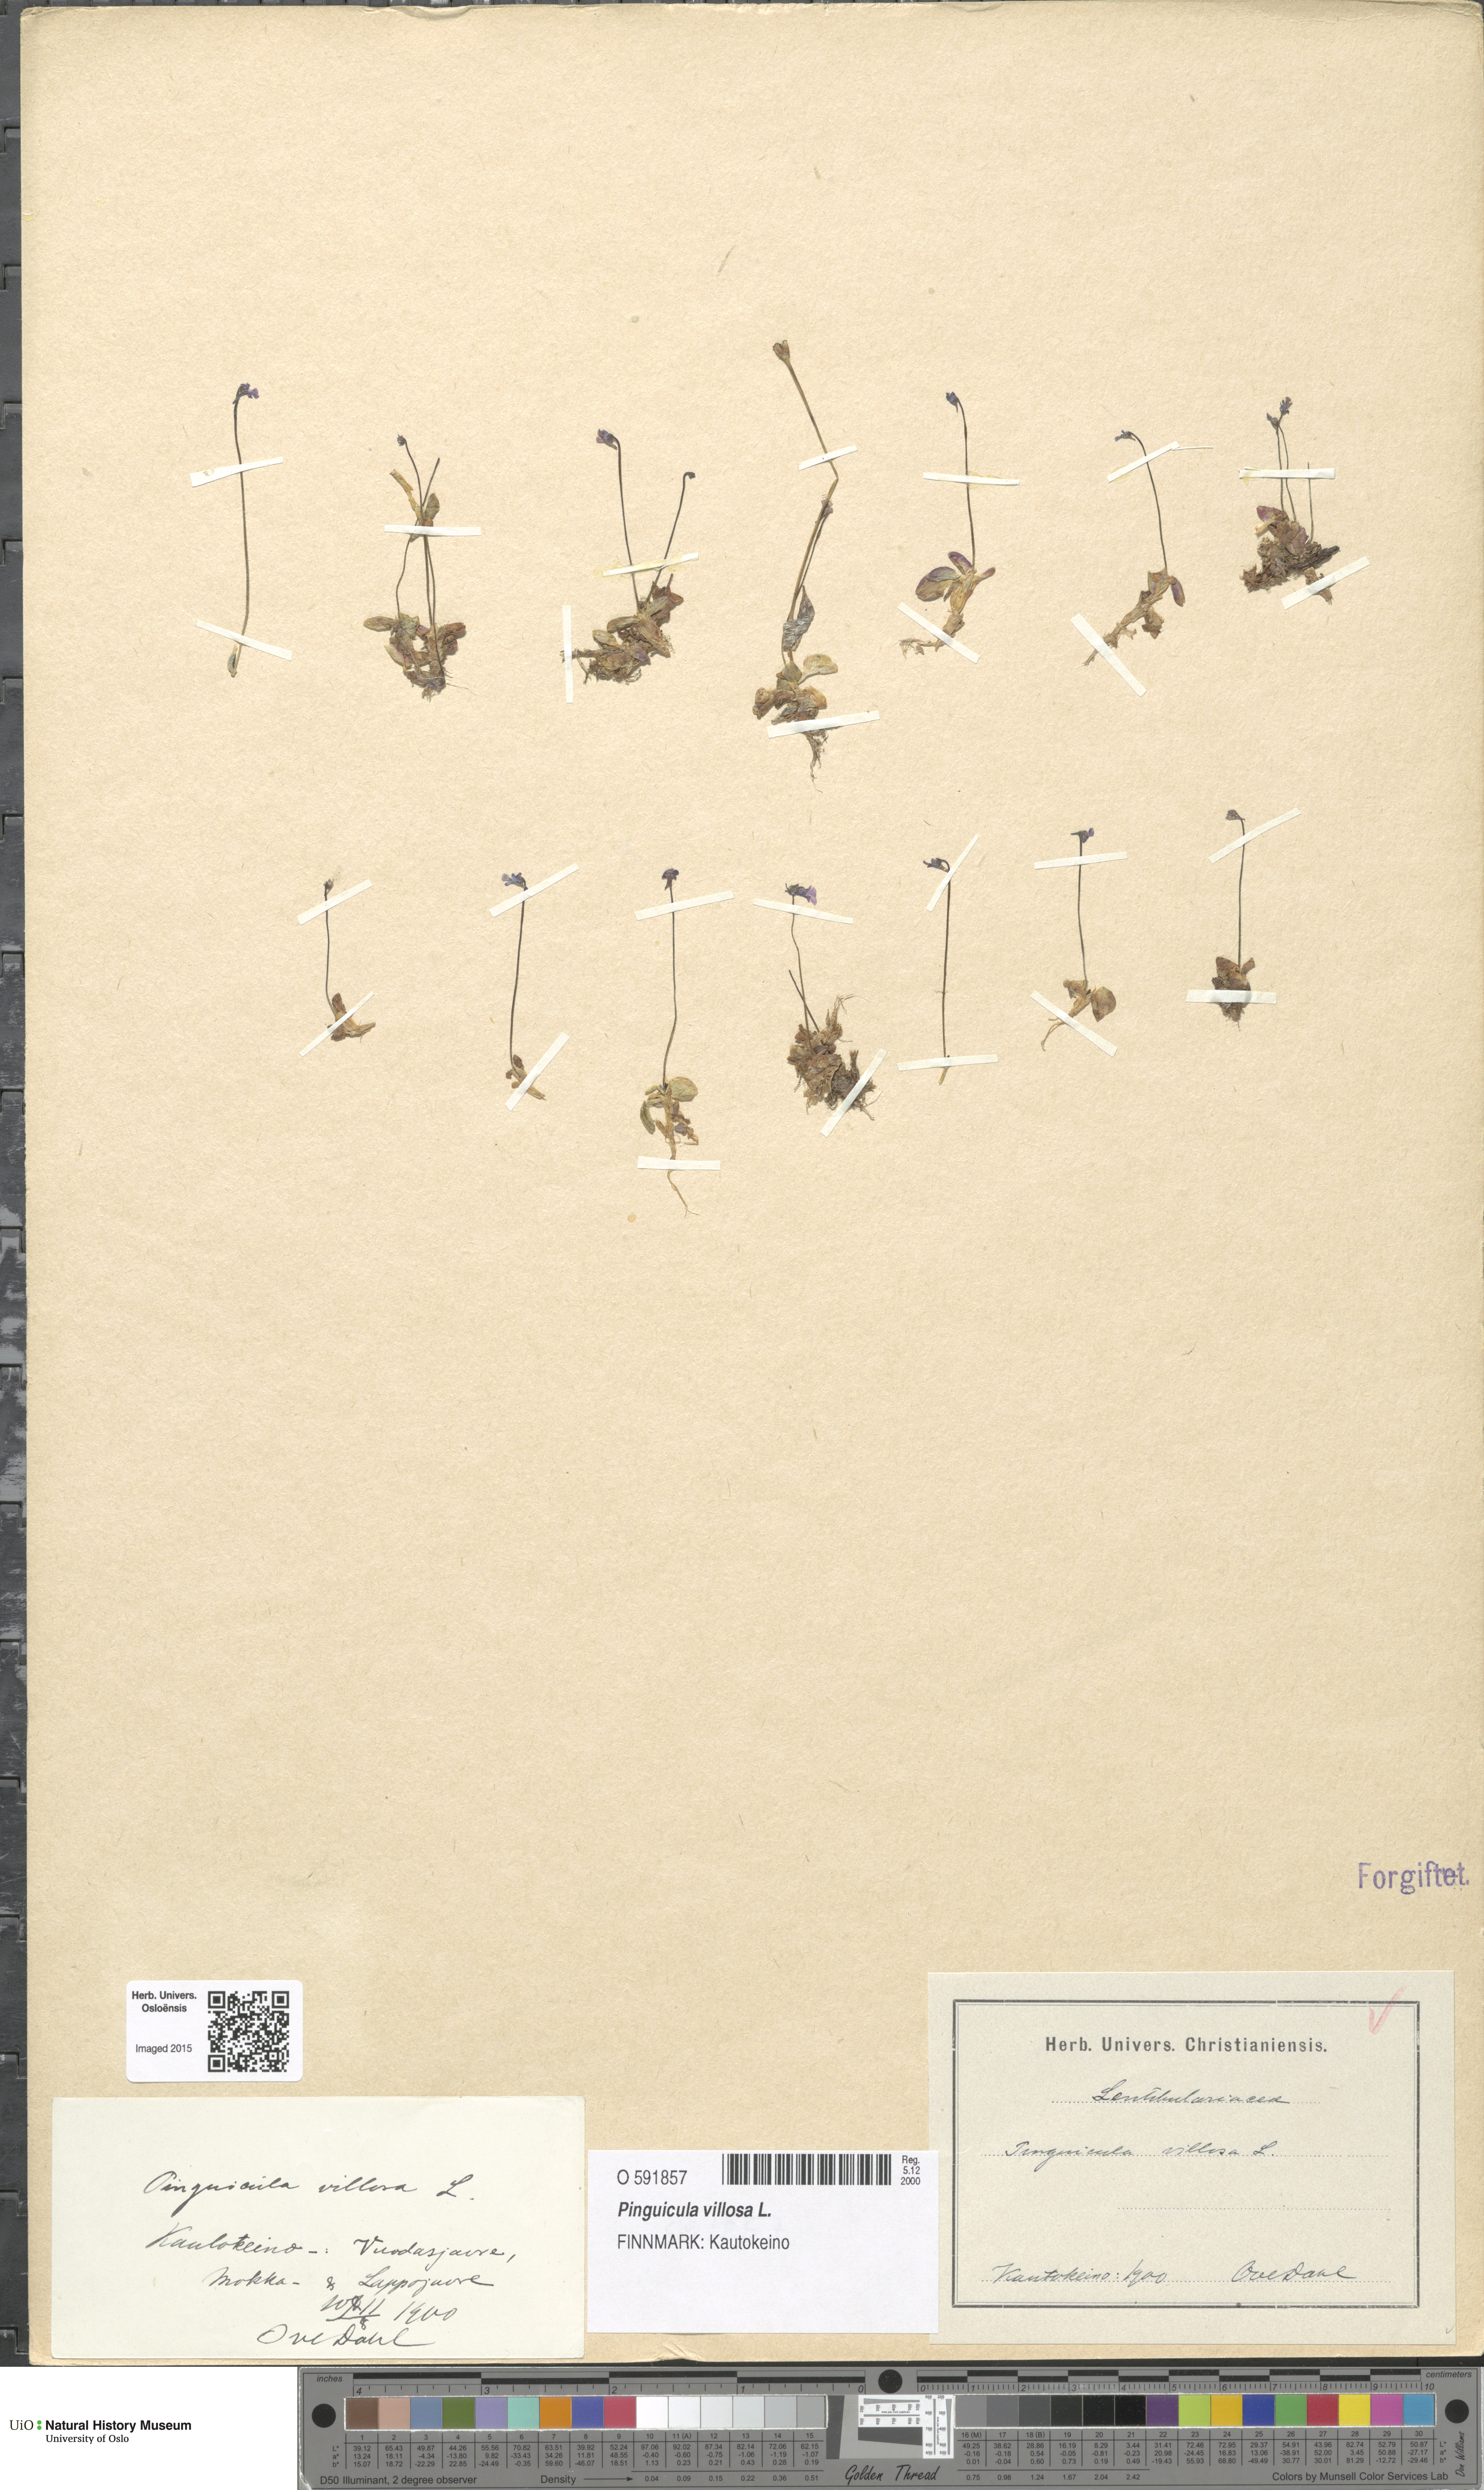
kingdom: Plantae
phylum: Tracheophyta
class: Magnoliopsida
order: Lamiales
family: Lentibulariaceae
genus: Pinguicula
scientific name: Pinguicula villosa
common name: Hairy butterwort
